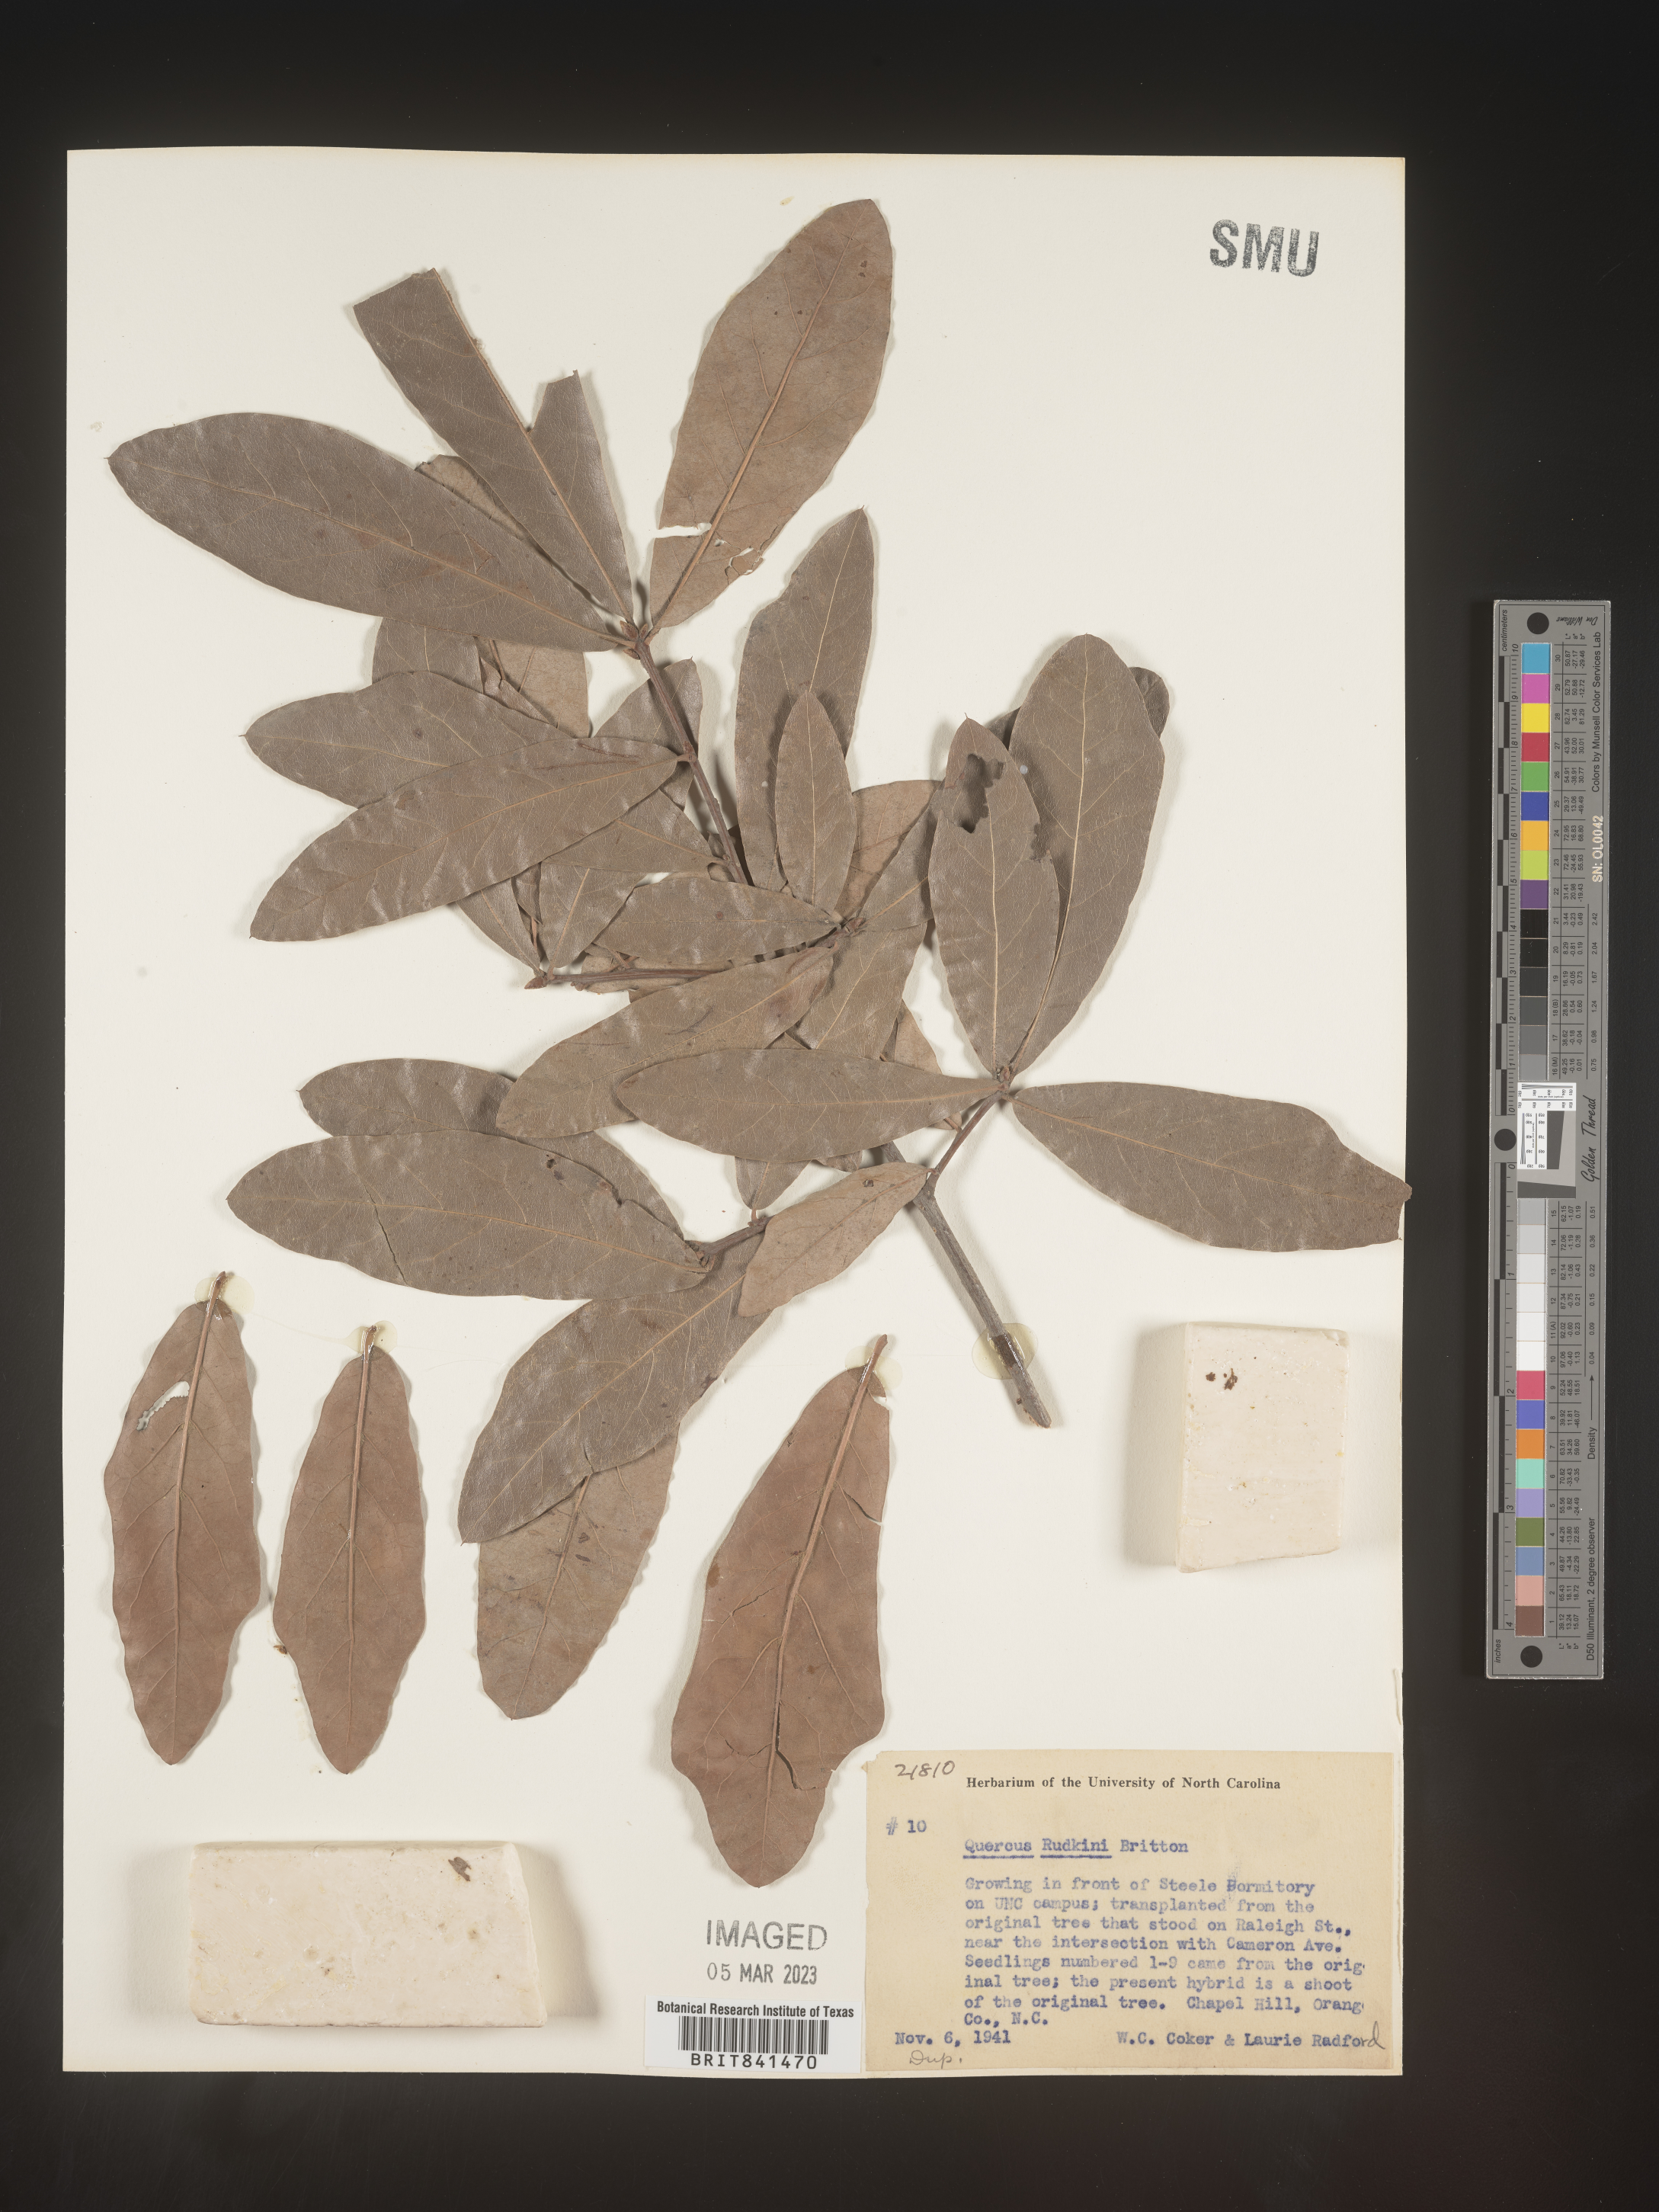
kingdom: Plantae
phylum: Tracheophyta
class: Magnoliopsida
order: Fagales
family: Fagaceae
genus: Quercus
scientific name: Quercus rudkinii
